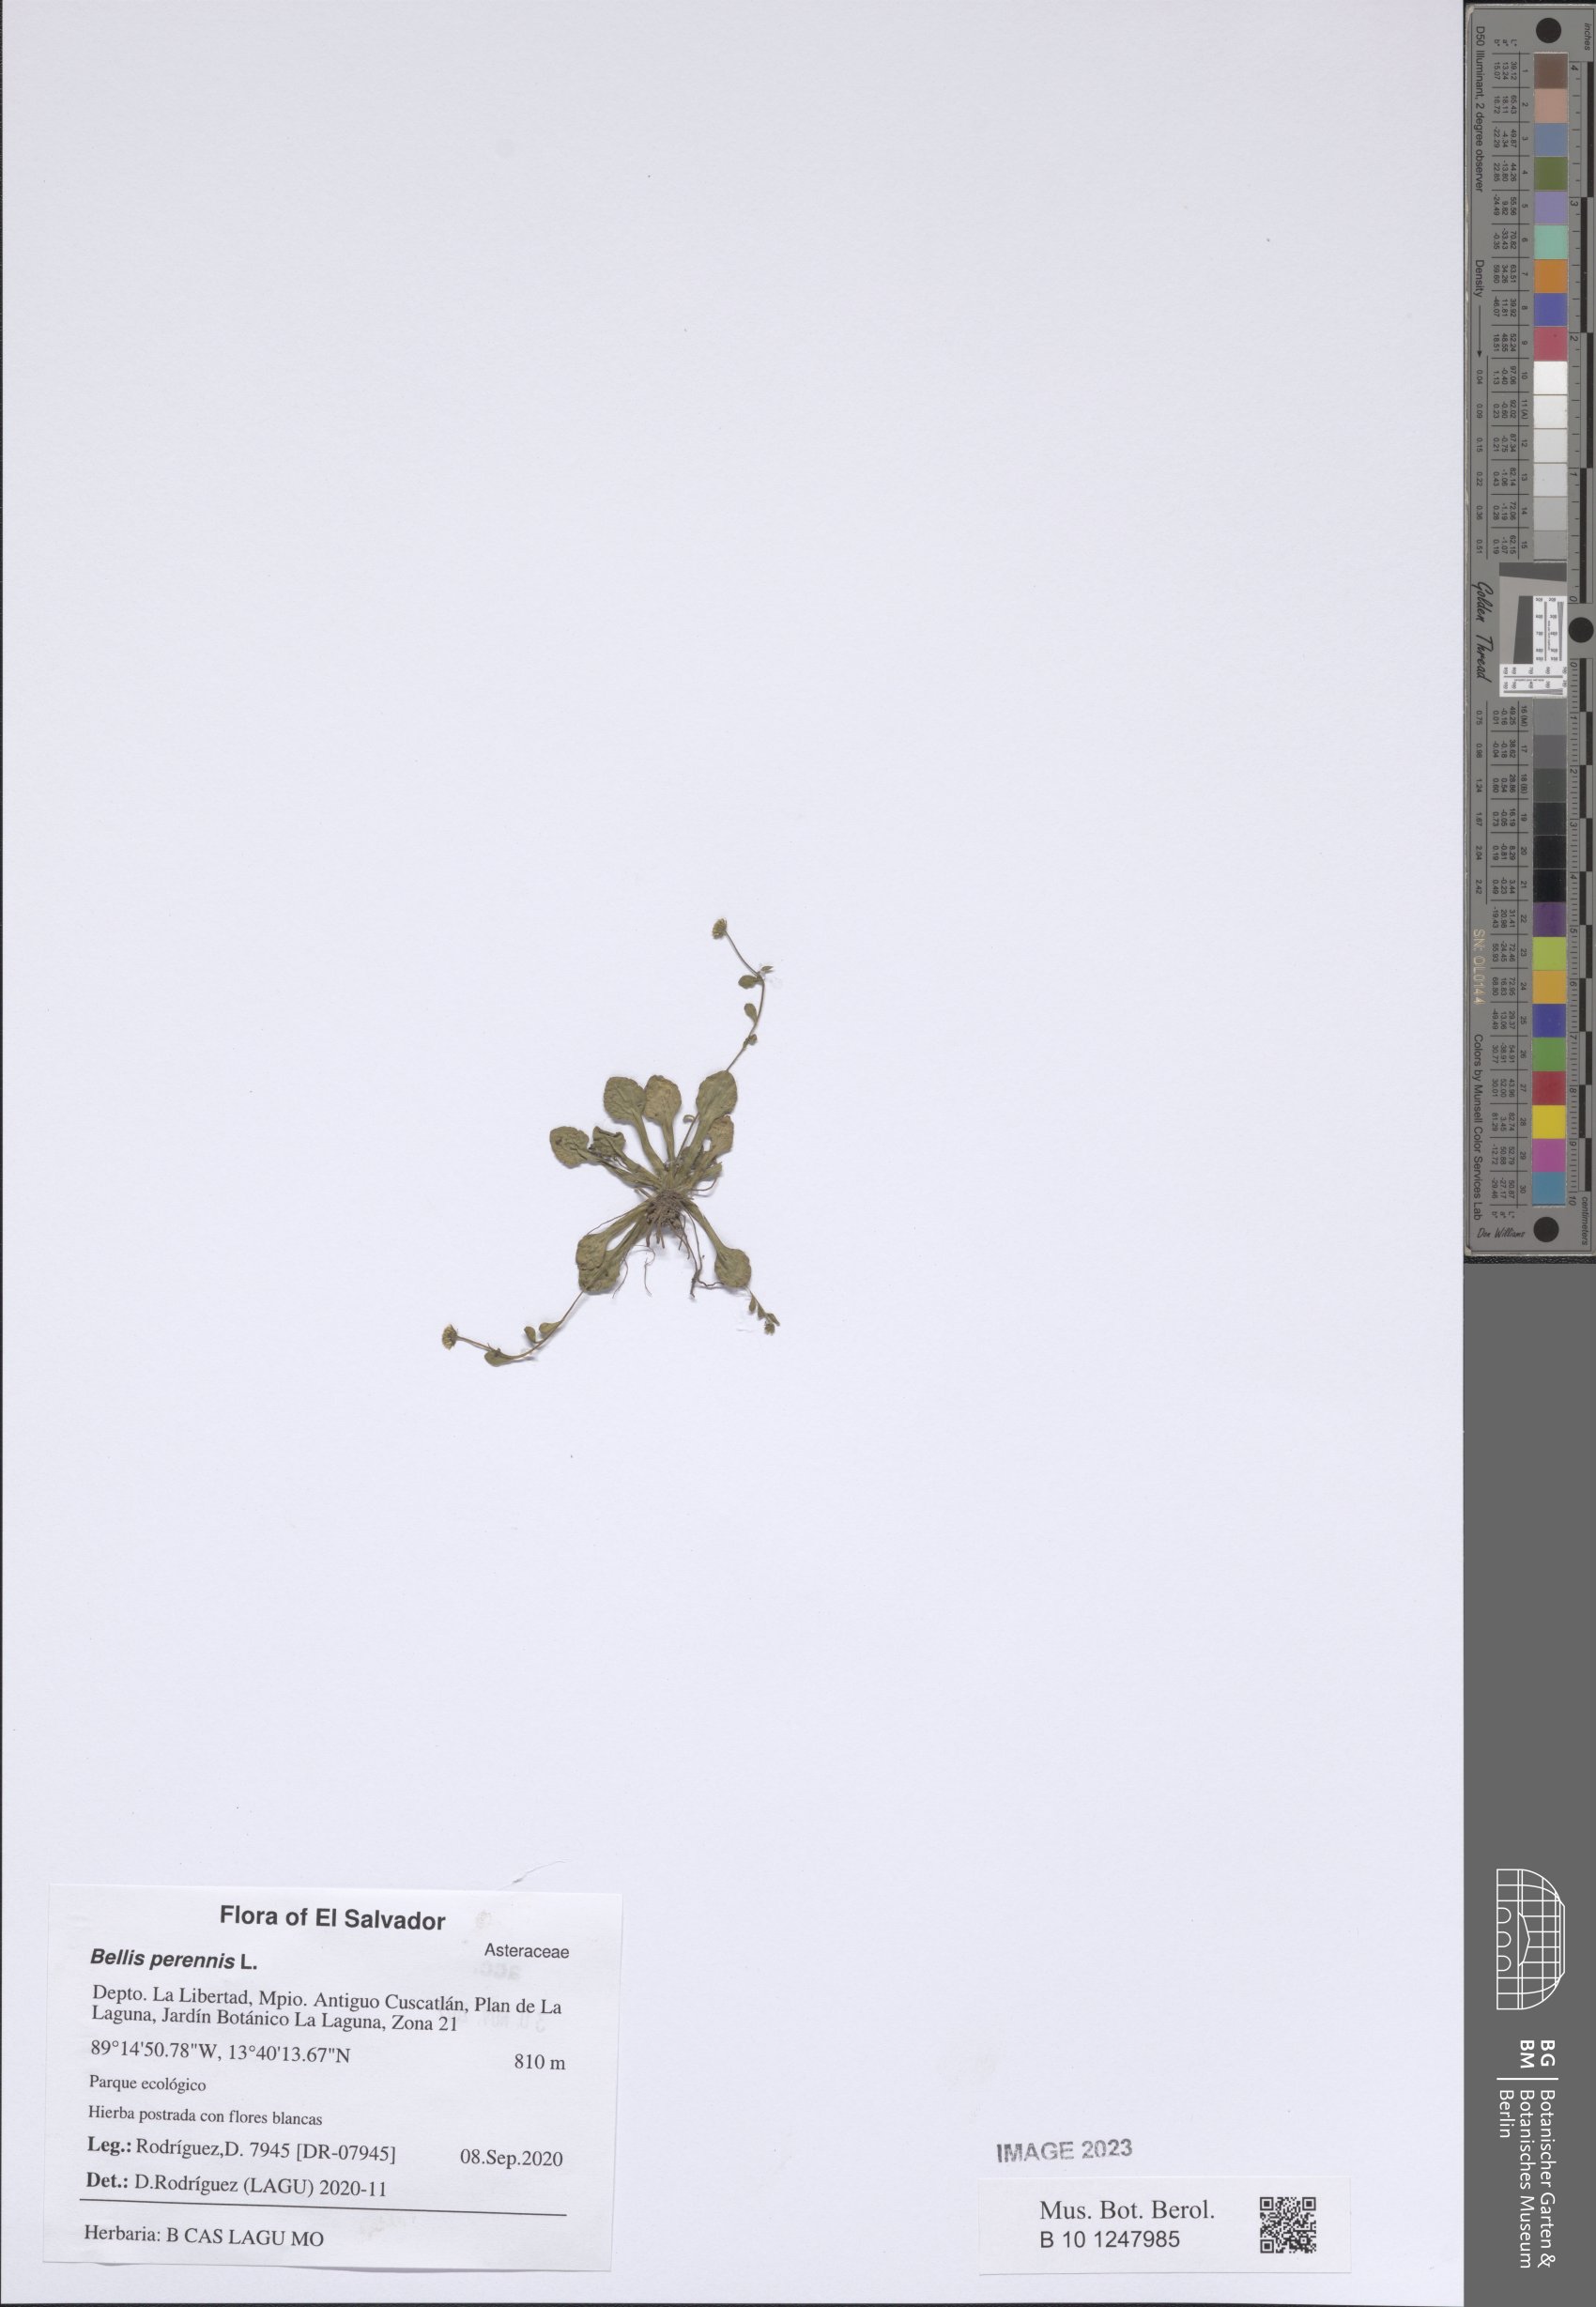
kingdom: Plantae
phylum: Tracheophyta
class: Magnoliopsida
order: Asterales
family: Asteraceae
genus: Bellis
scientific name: Bellis perennis
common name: Lawndaisy
